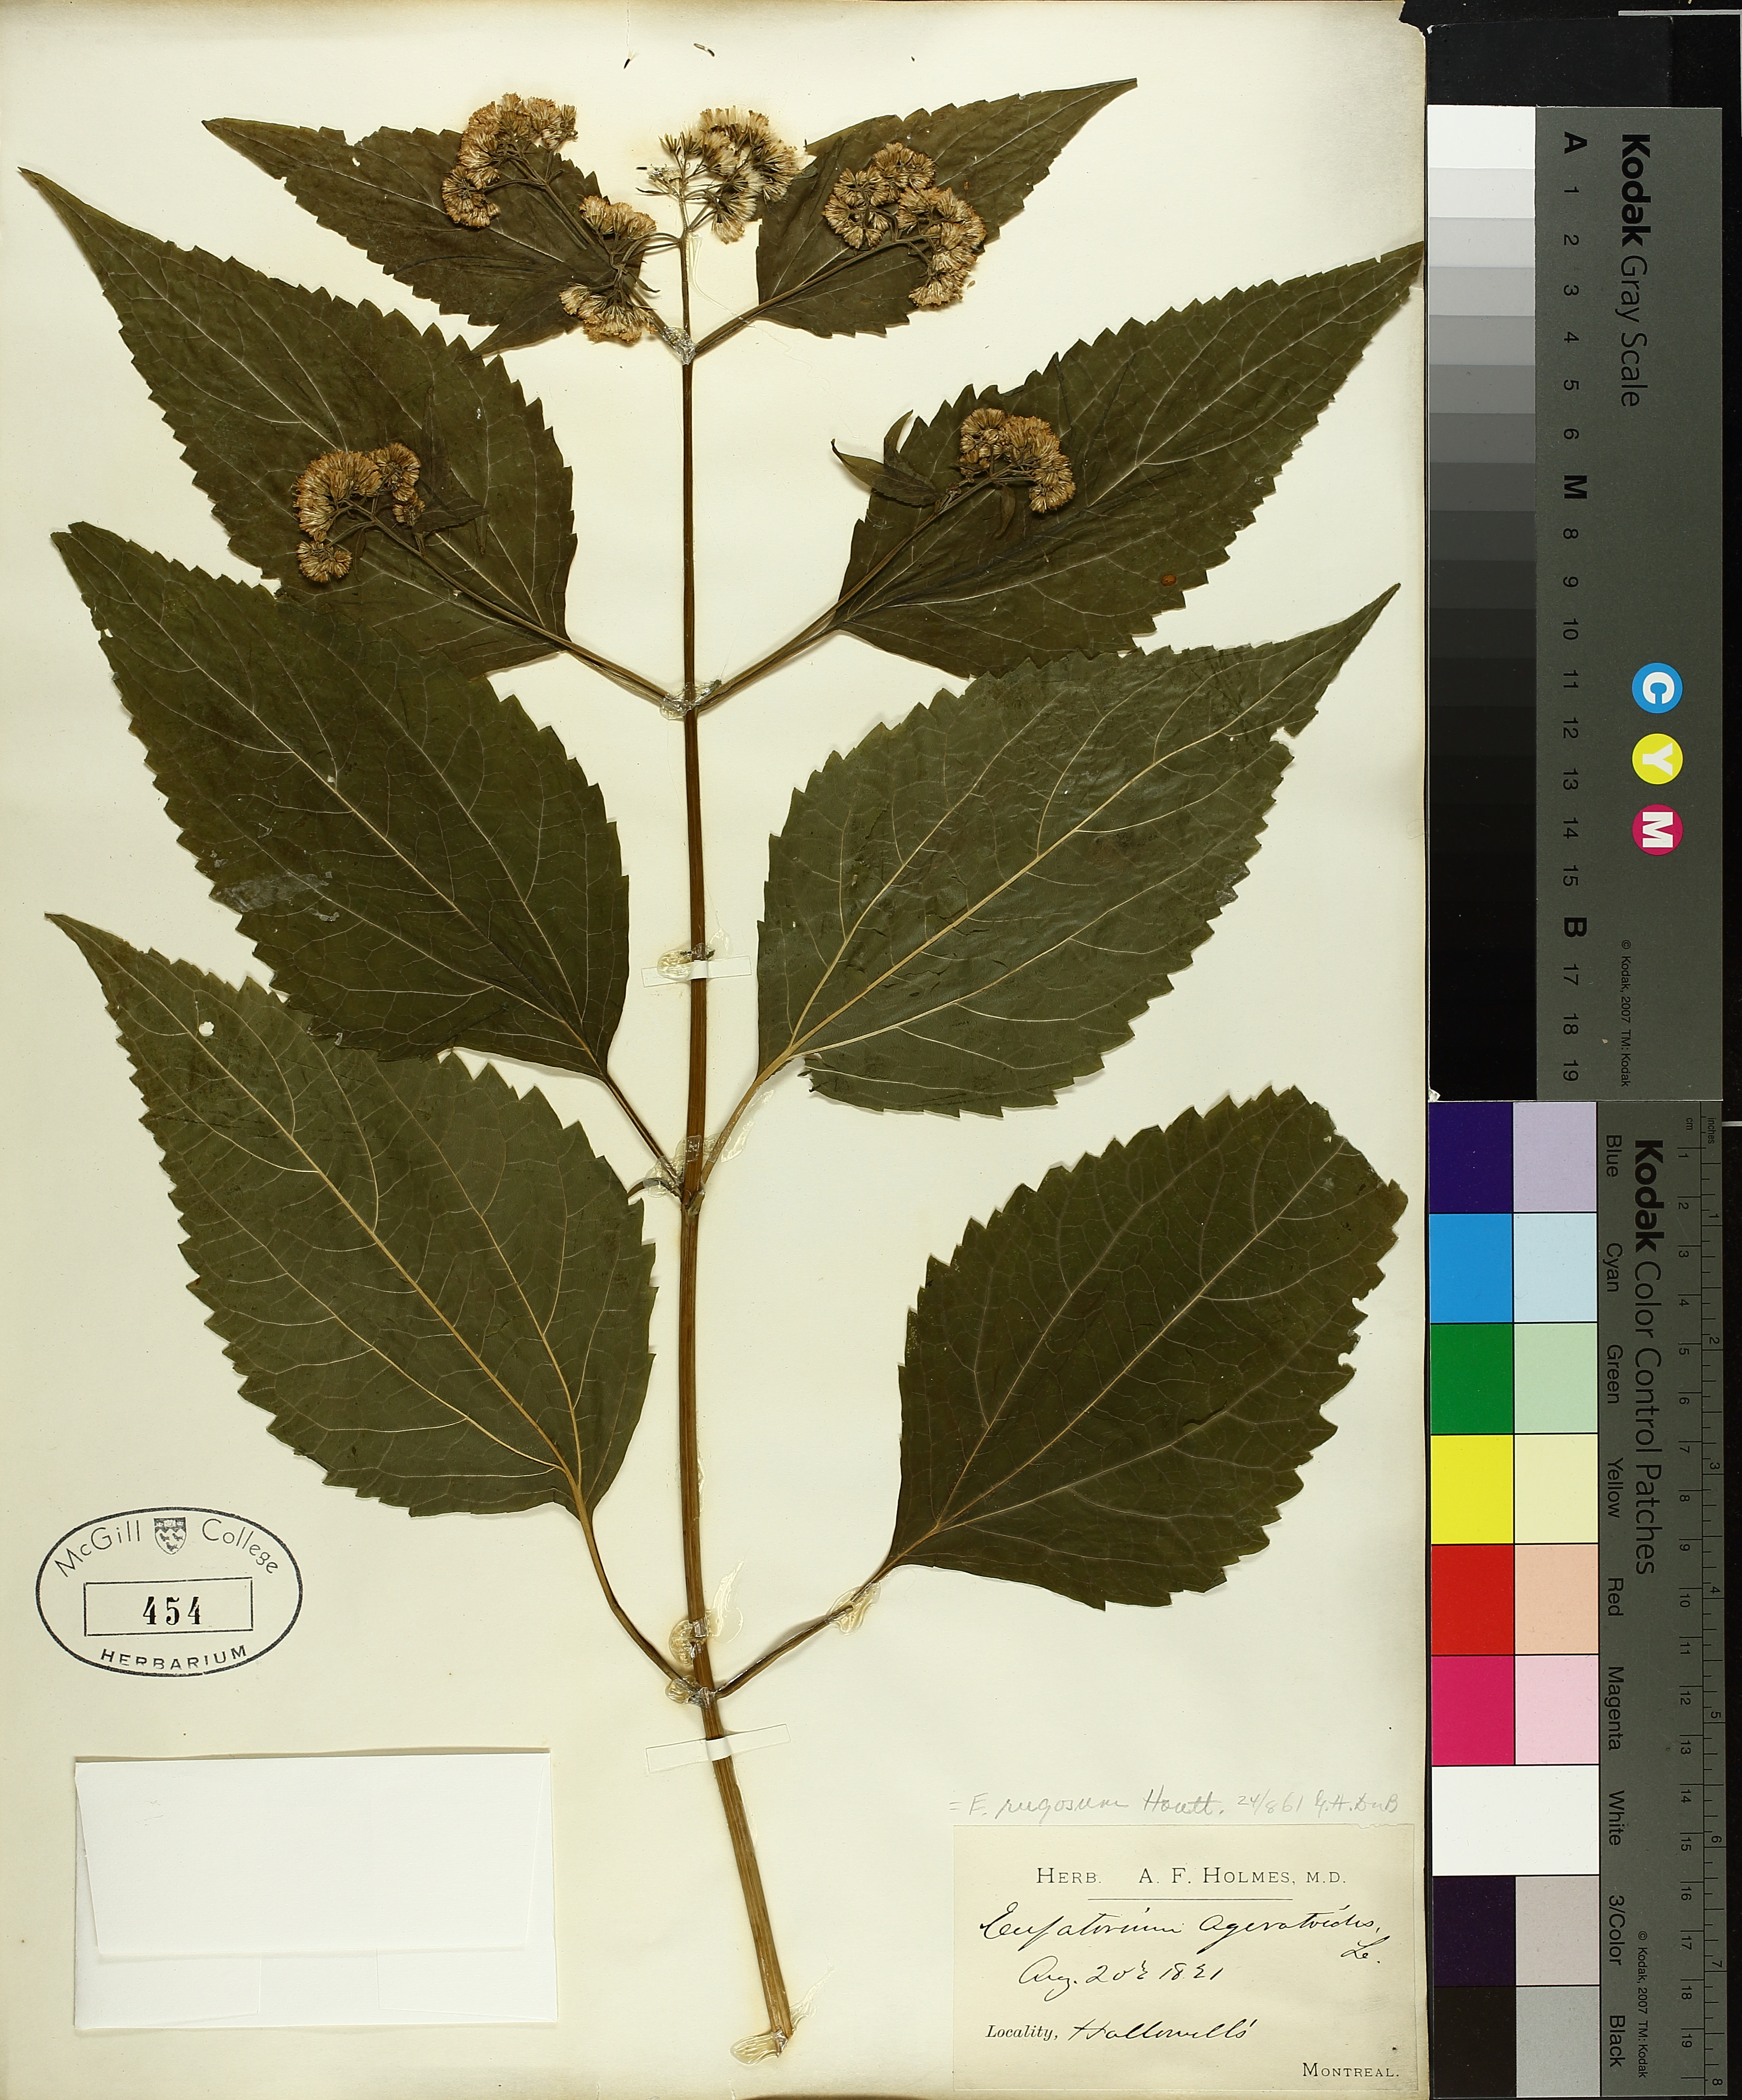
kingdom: Plantae
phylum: Tracheophyta
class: Magnoliopsida
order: Asterales
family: Asteraceae
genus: Ageratina
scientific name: Ageratina altissima
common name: White snakeroot
